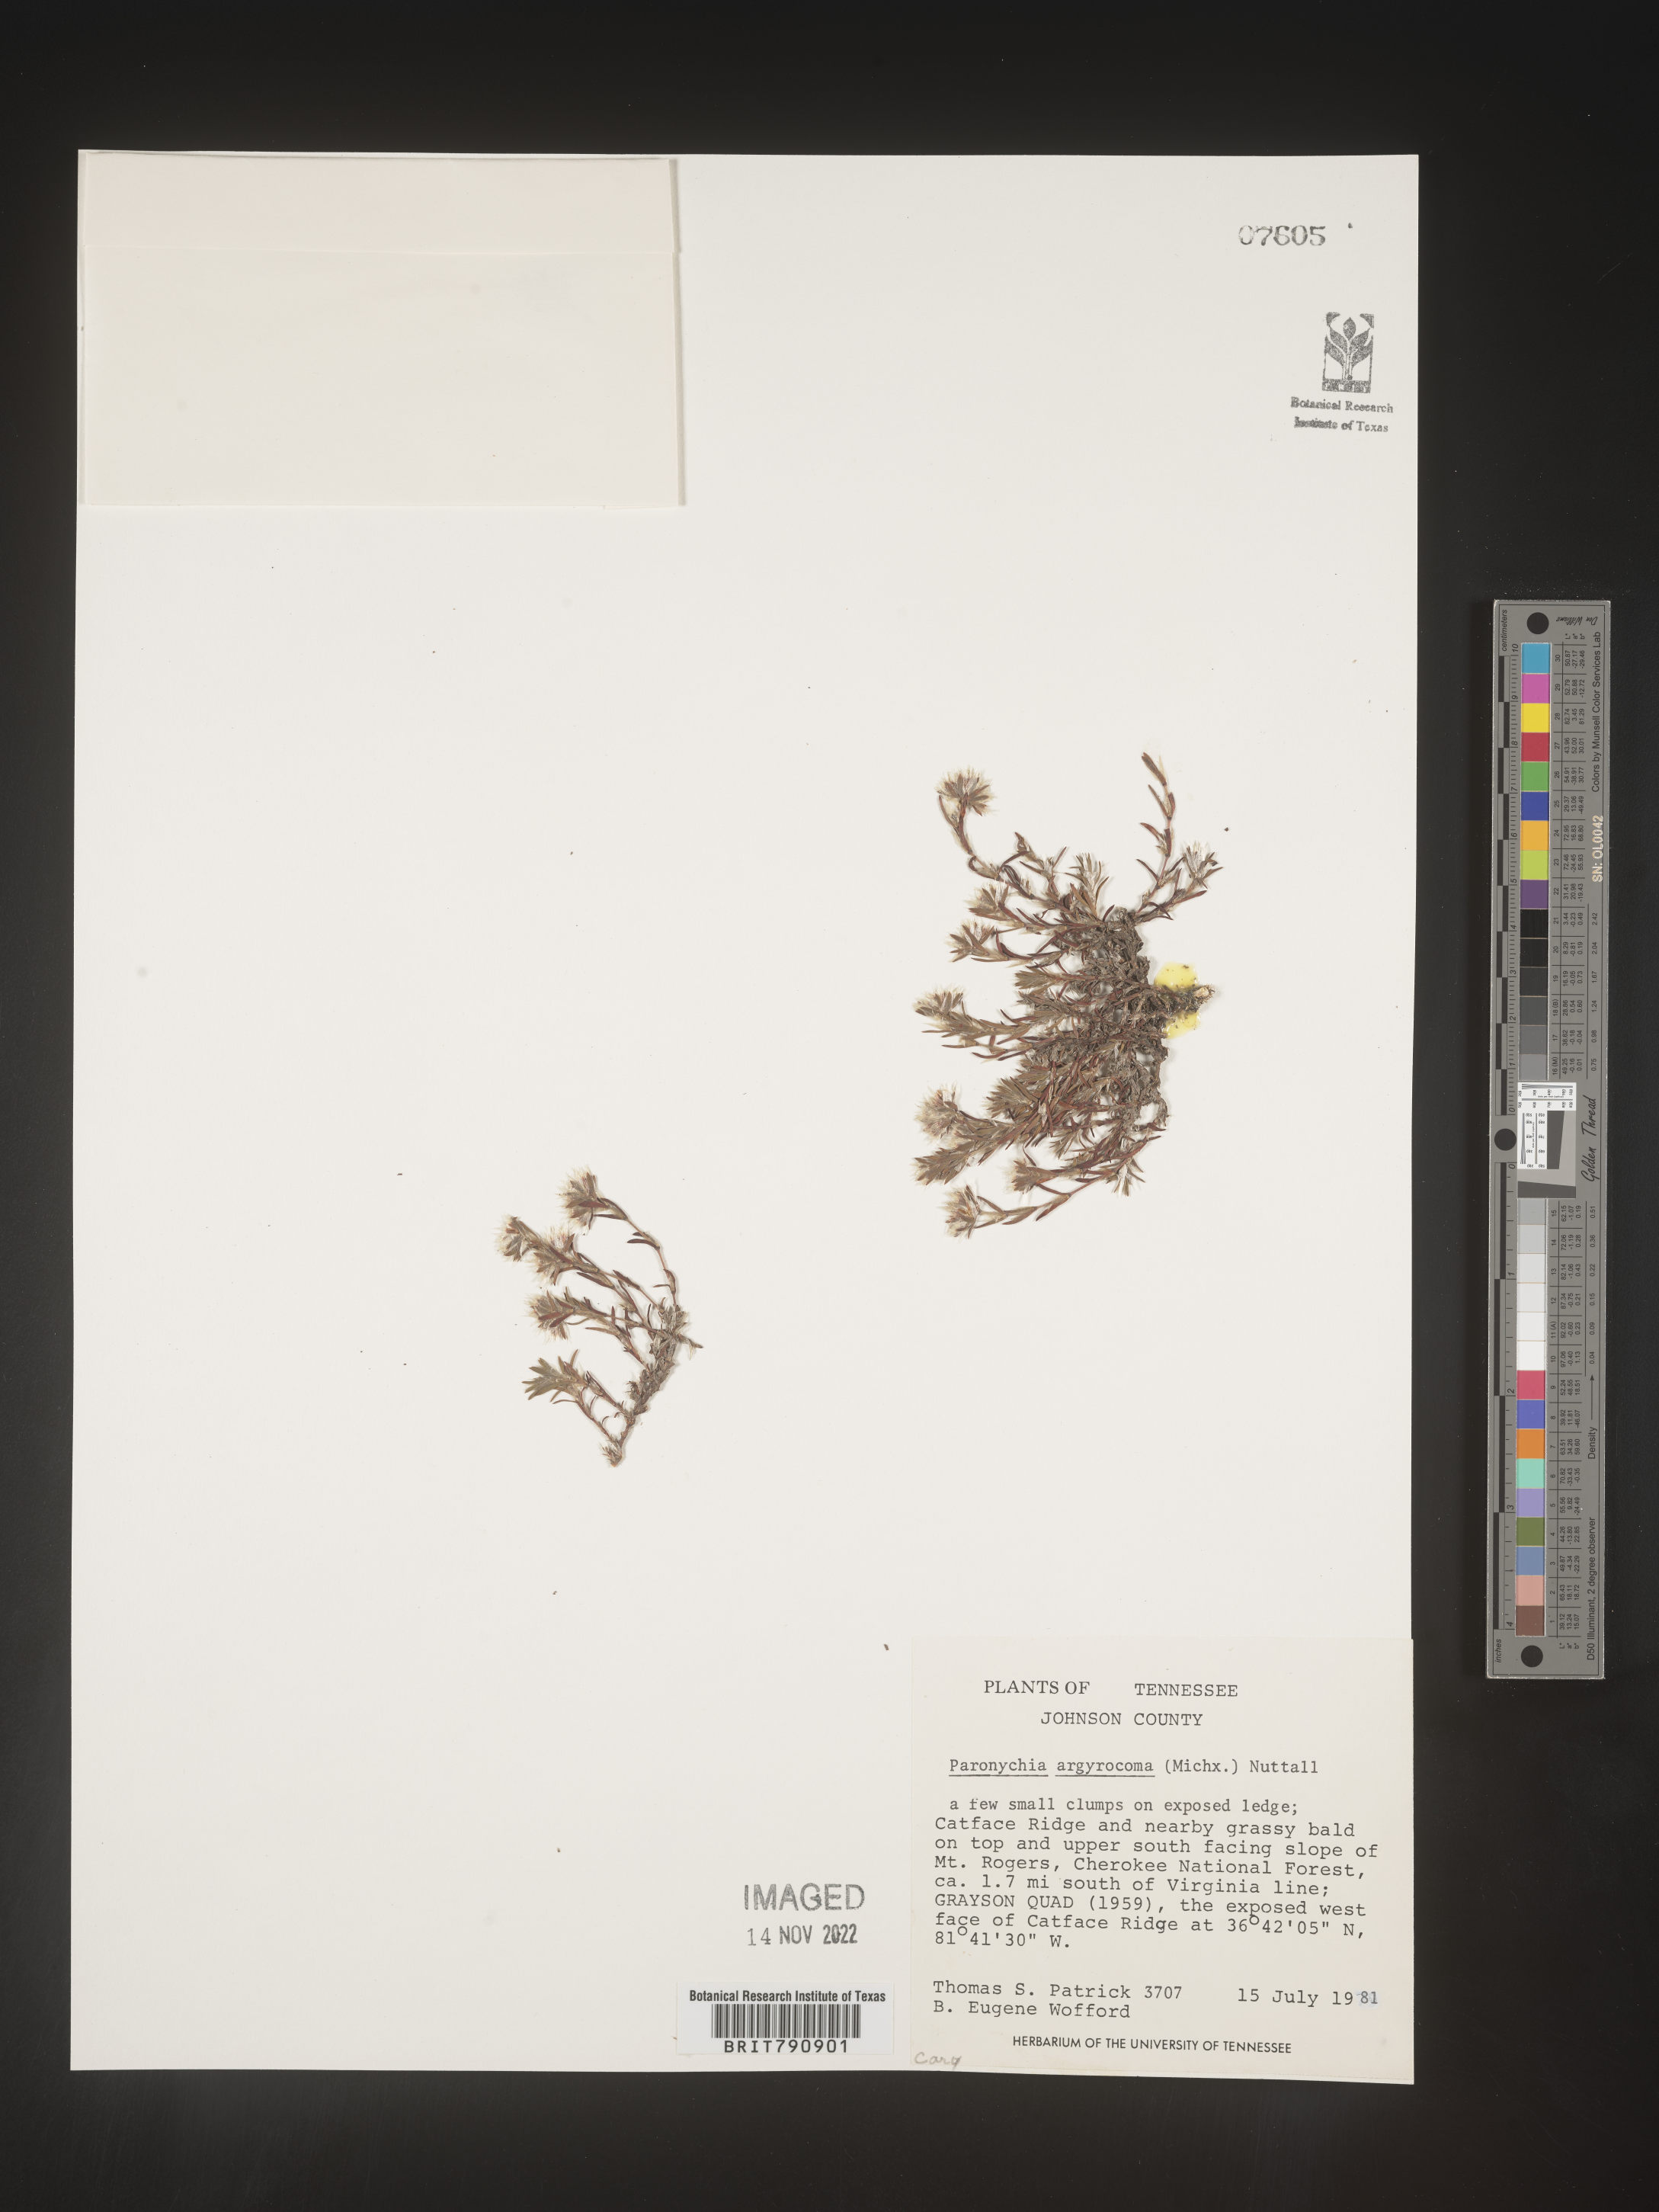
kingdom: Plantae
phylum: Tracheophyta
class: Magnoliopsida
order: Caryophyllales
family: Caryophyllaceae
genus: Paronychia
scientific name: Paronychia argyrocoma
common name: Silverling
